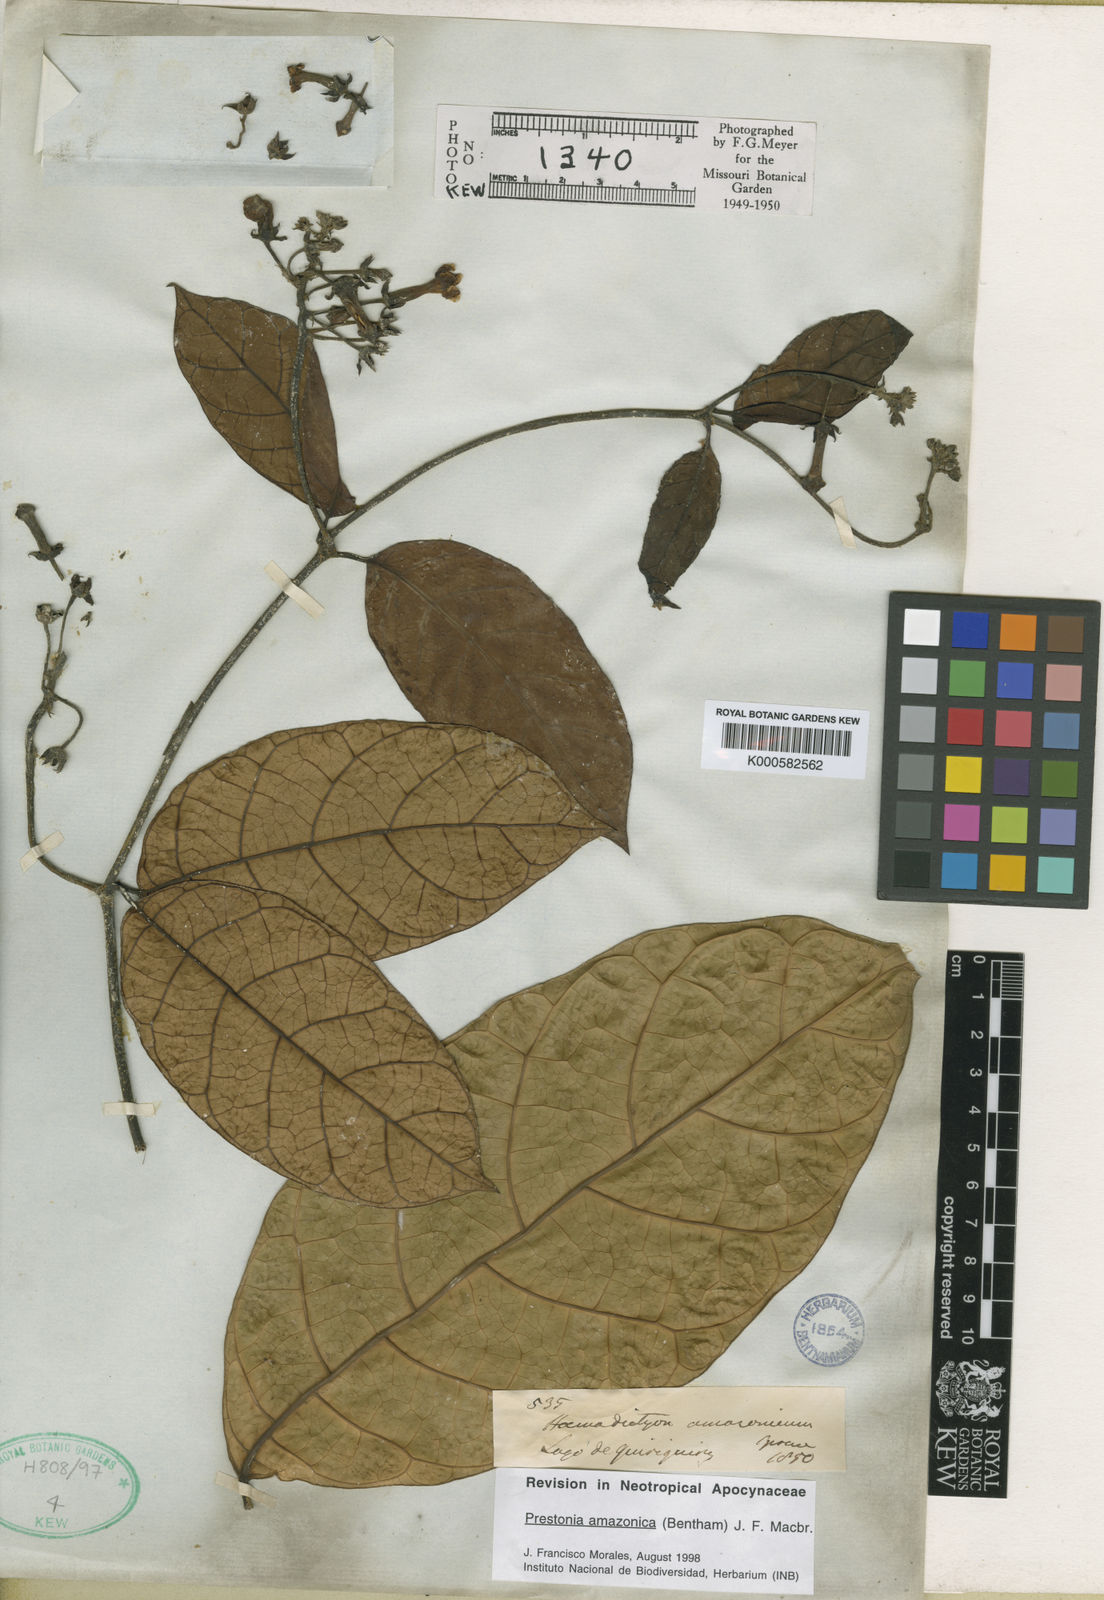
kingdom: Plantae
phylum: Tracheophyta
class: Magnoliopsida
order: Gentianales
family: Apocynaceae
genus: Prestonia
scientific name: Prestonia amazonica
